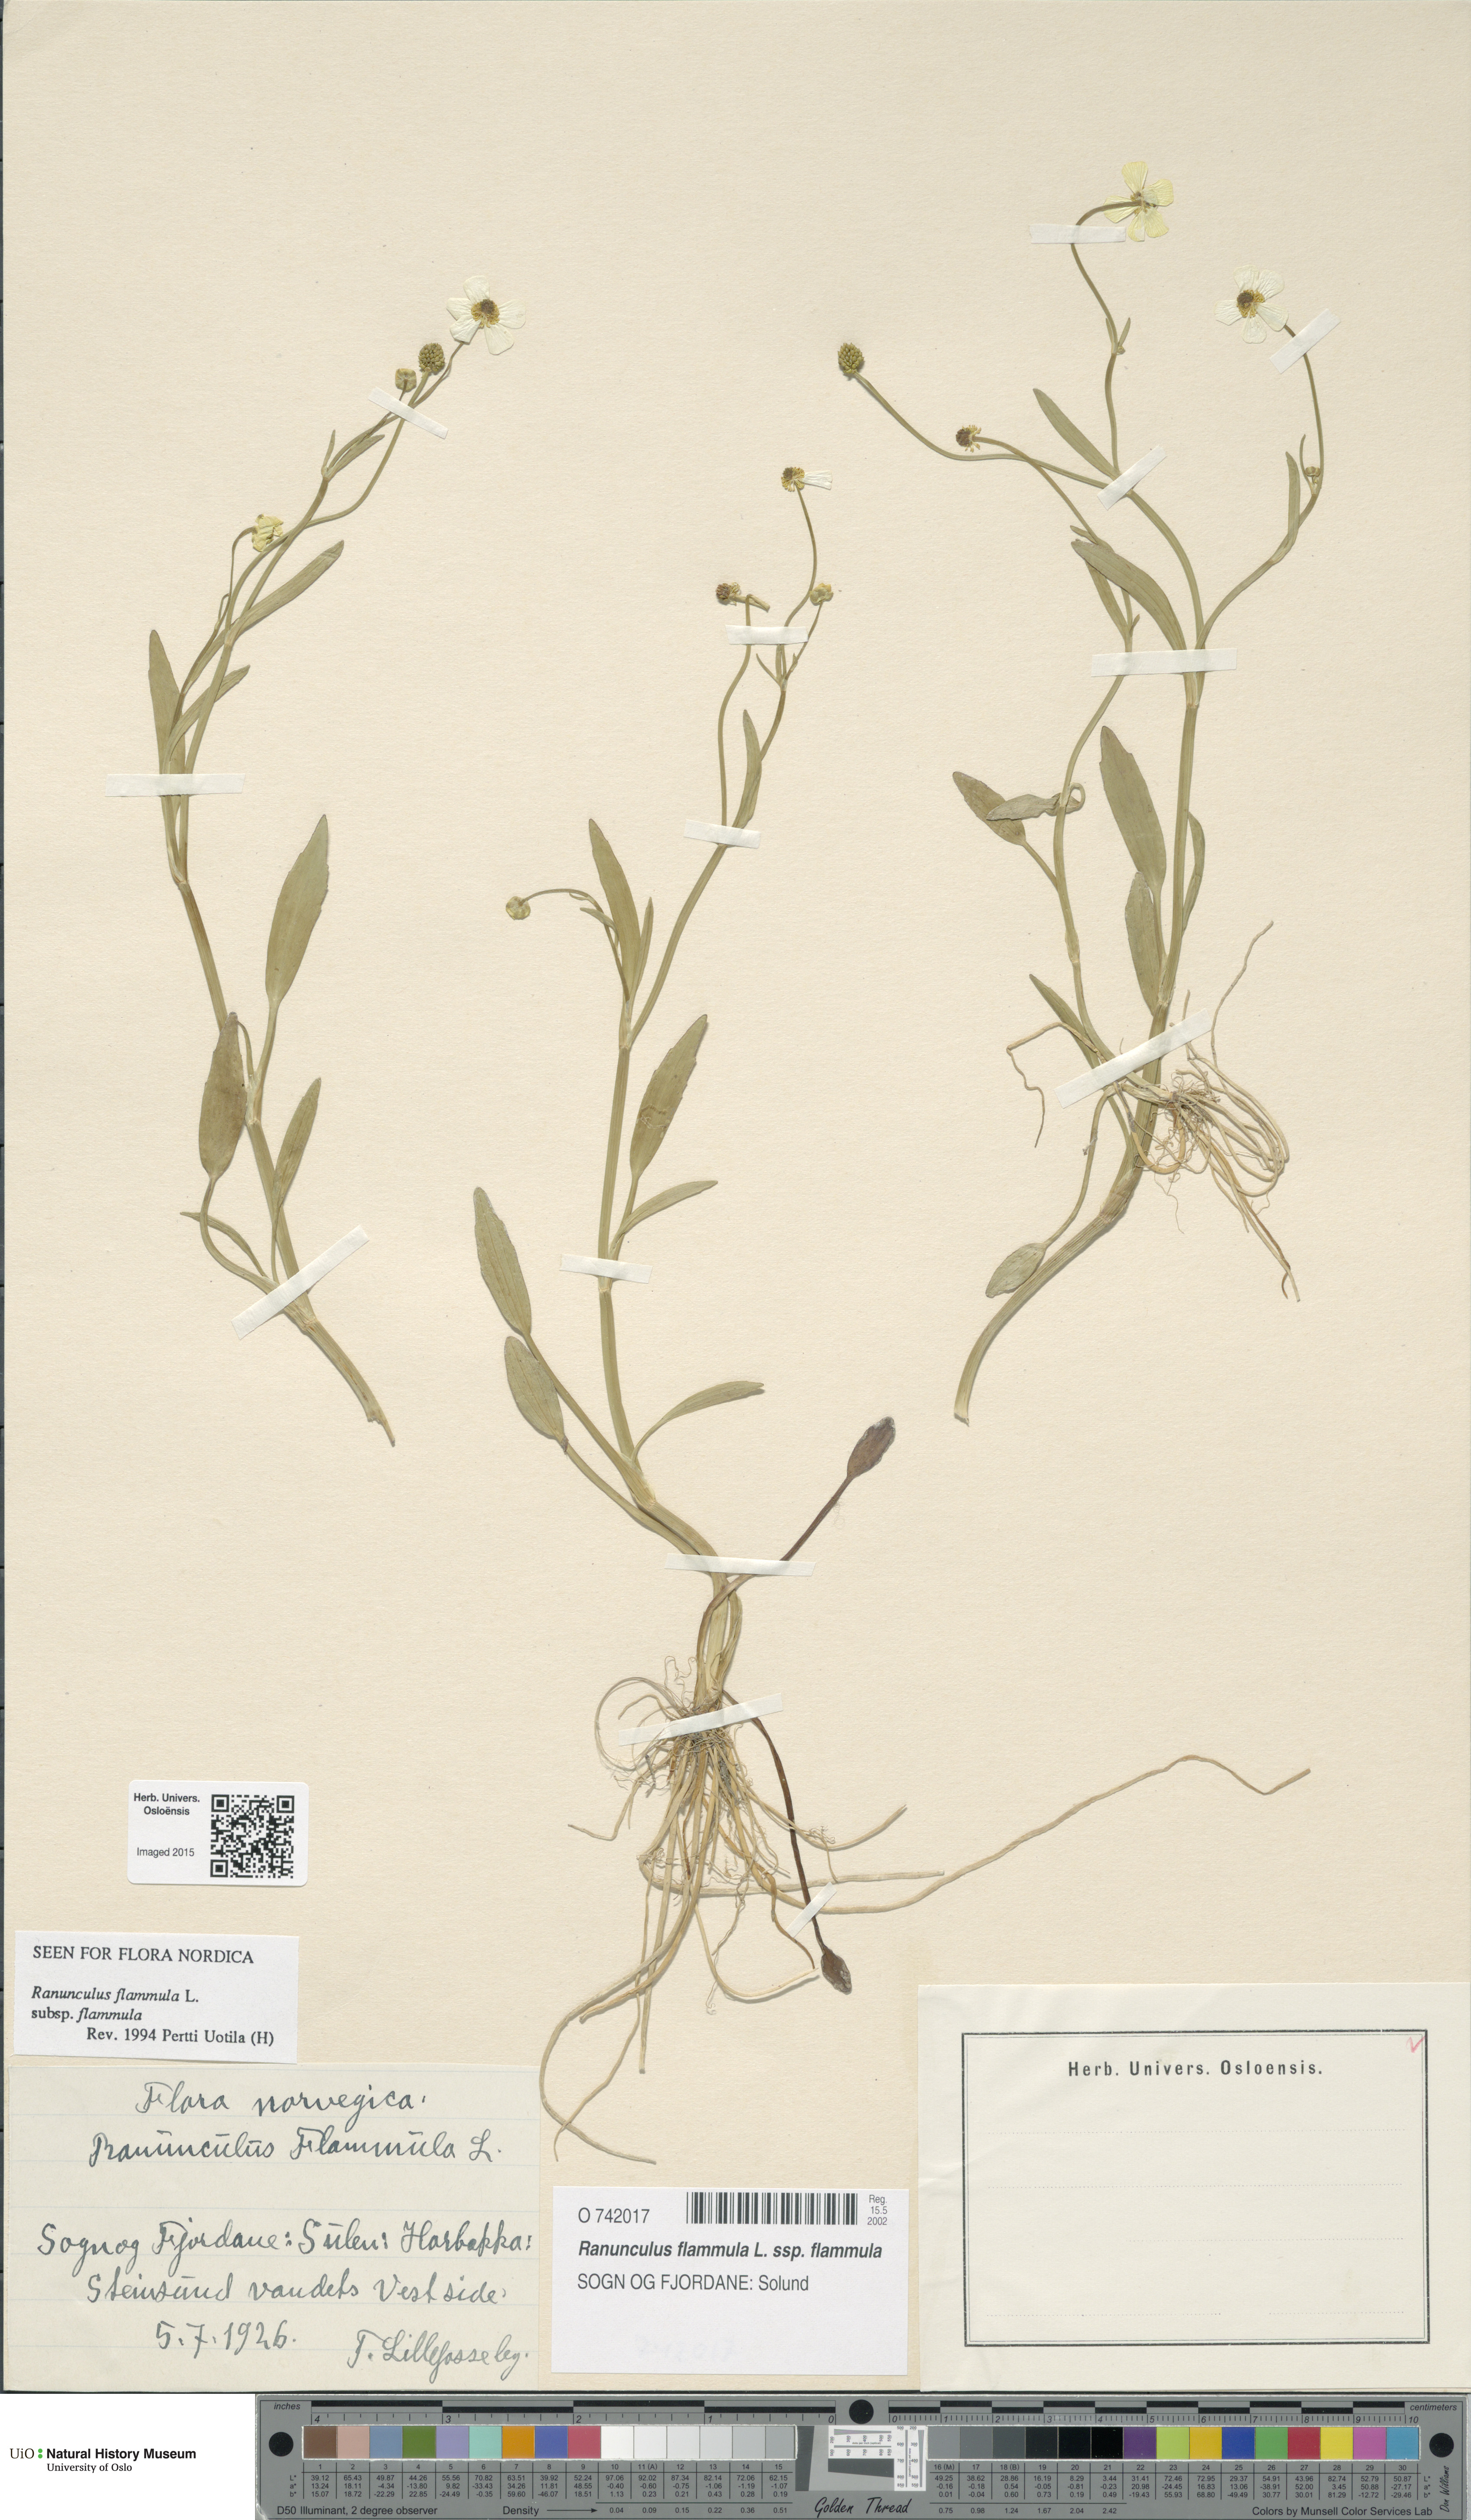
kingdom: Plantae
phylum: Tracheophyta
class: Magnoliopsida
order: Ranunculales
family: Ranunculaceae
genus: Ranunculus
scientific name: Ranunculus flammula
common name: Lesser spearwort
